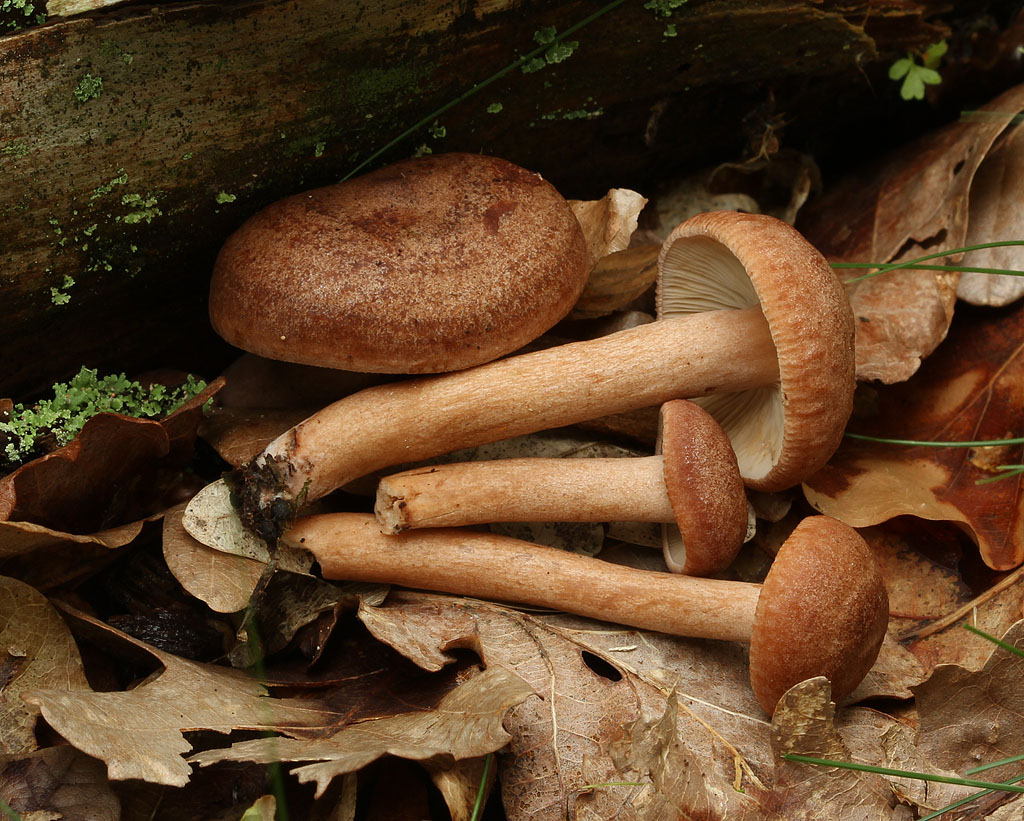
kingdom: Fungi
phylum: Basidiomycota
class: Agaricomycetes
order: Russulales
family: Russulaceae
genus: Lactarius
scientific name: Lactarius quietus
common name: ege-mælkehat
